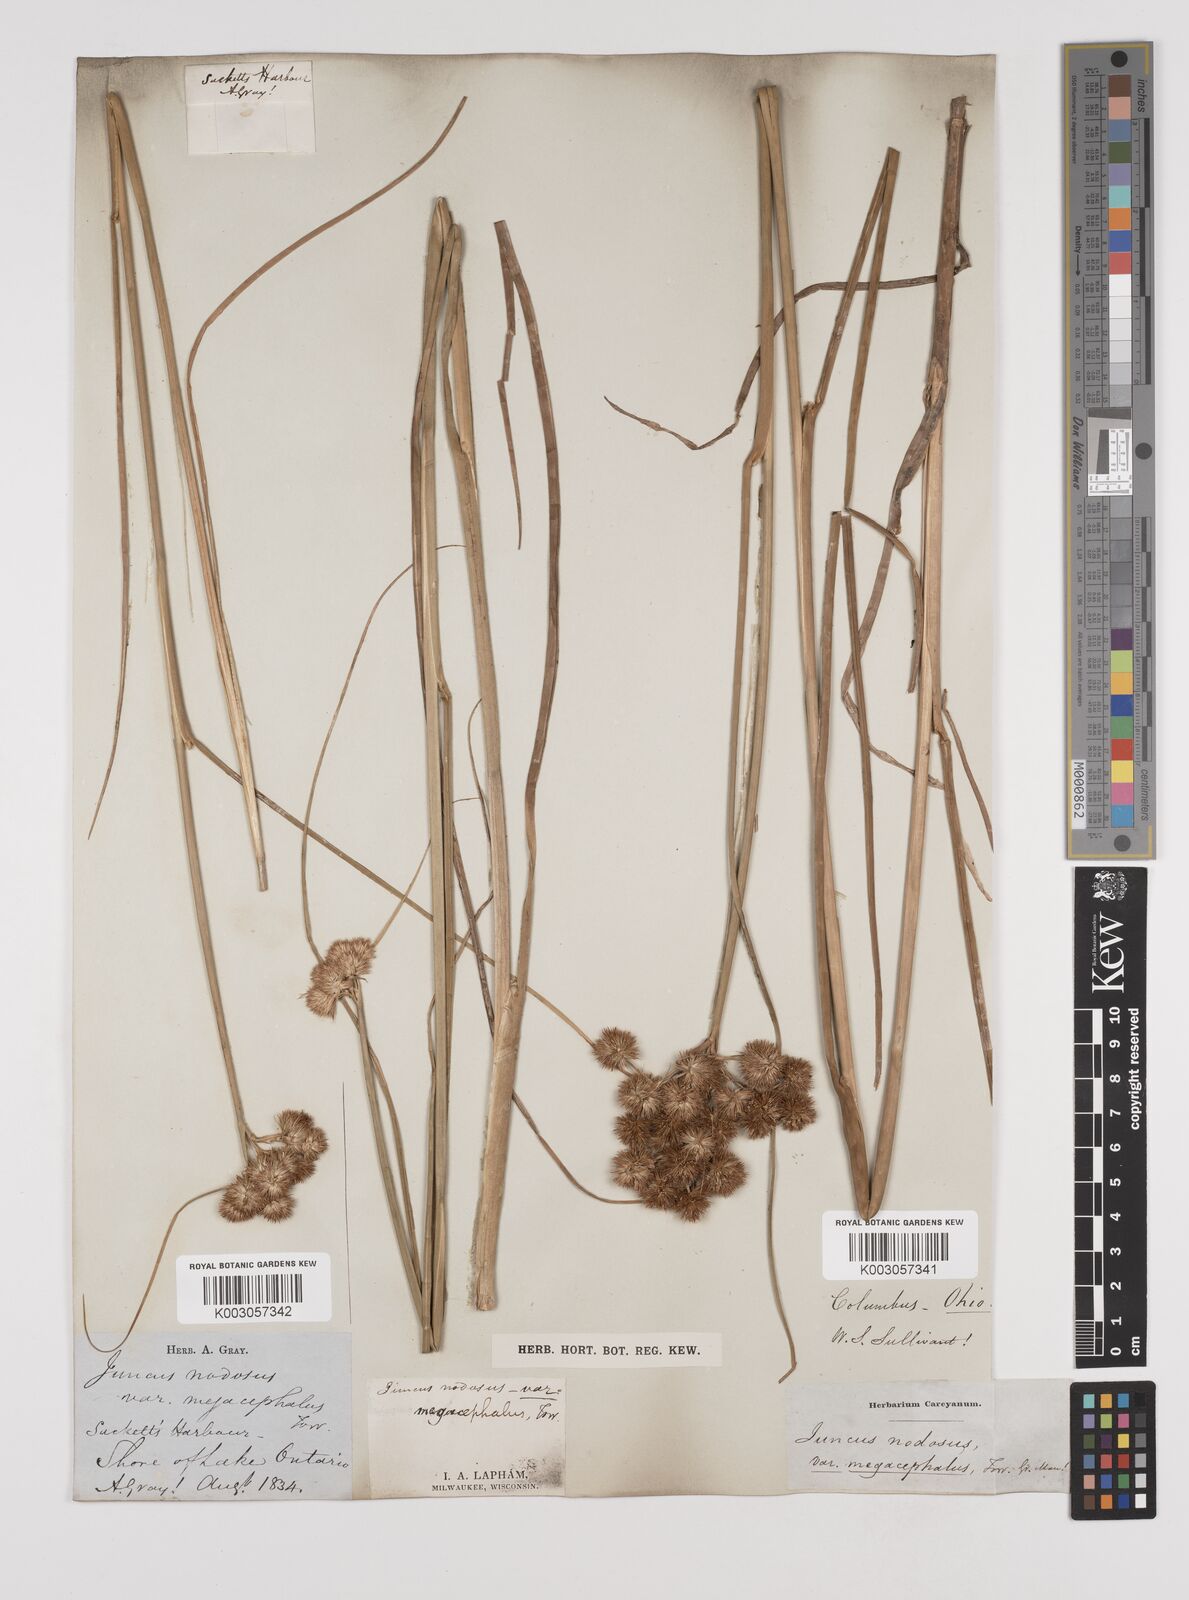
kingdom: Plantae
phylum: Tracheophyta
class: Liliopsida
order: Poales
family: Juncaceae
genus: Juncus
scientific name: Juncus nodosus
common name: Knotted rush
